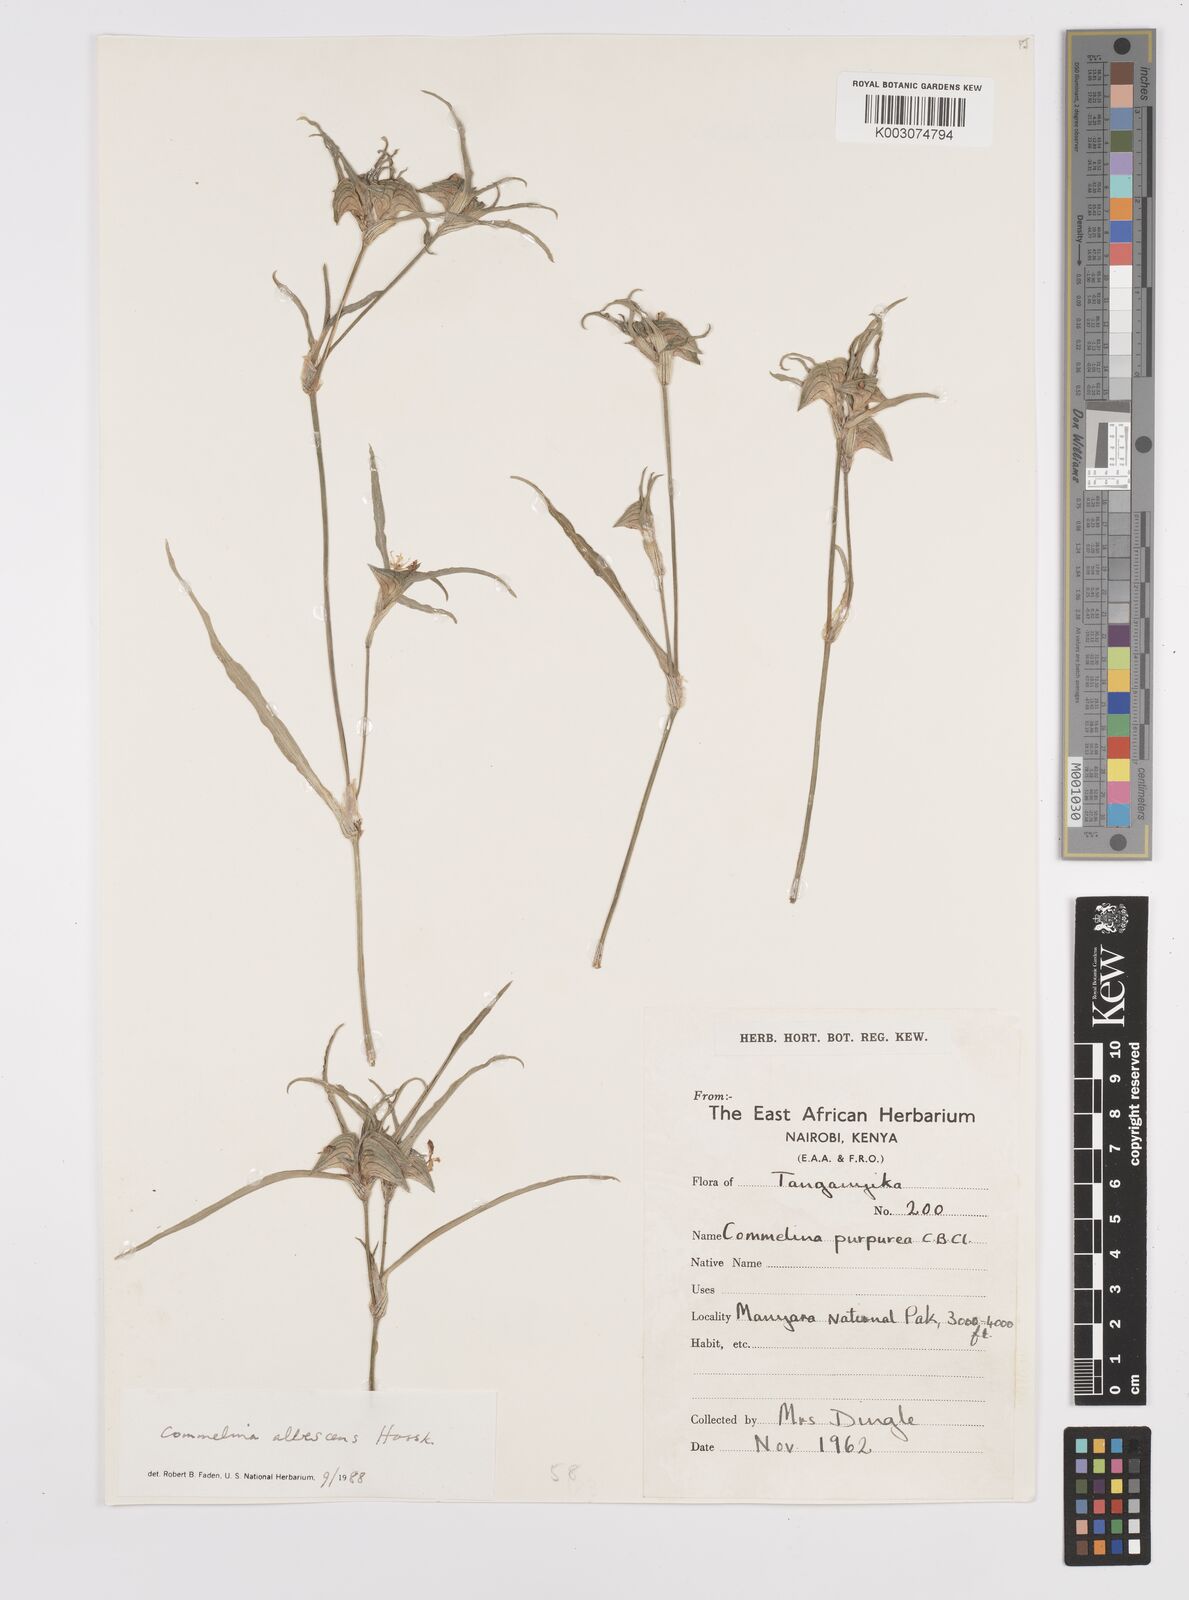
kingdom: Plantae
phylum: Tracheophyta
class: Liliopsida
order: Commelinales
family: Commelinaceae
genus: Commelina
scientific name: Commelina albescens
